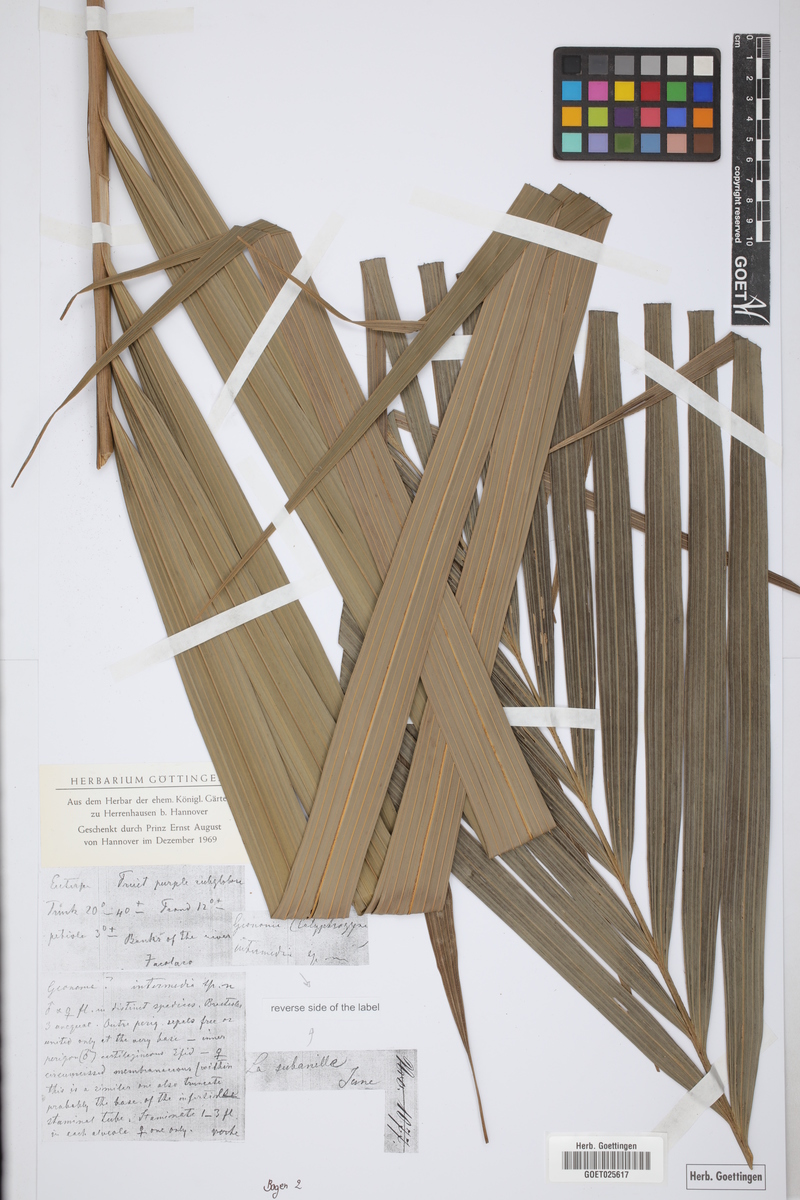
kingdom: Plantae
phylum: Tracheophyta
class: Liliopsida
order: Arecales
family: Arecaceae
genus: Calyptronoma
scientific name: Calyptronoma plumeriana
